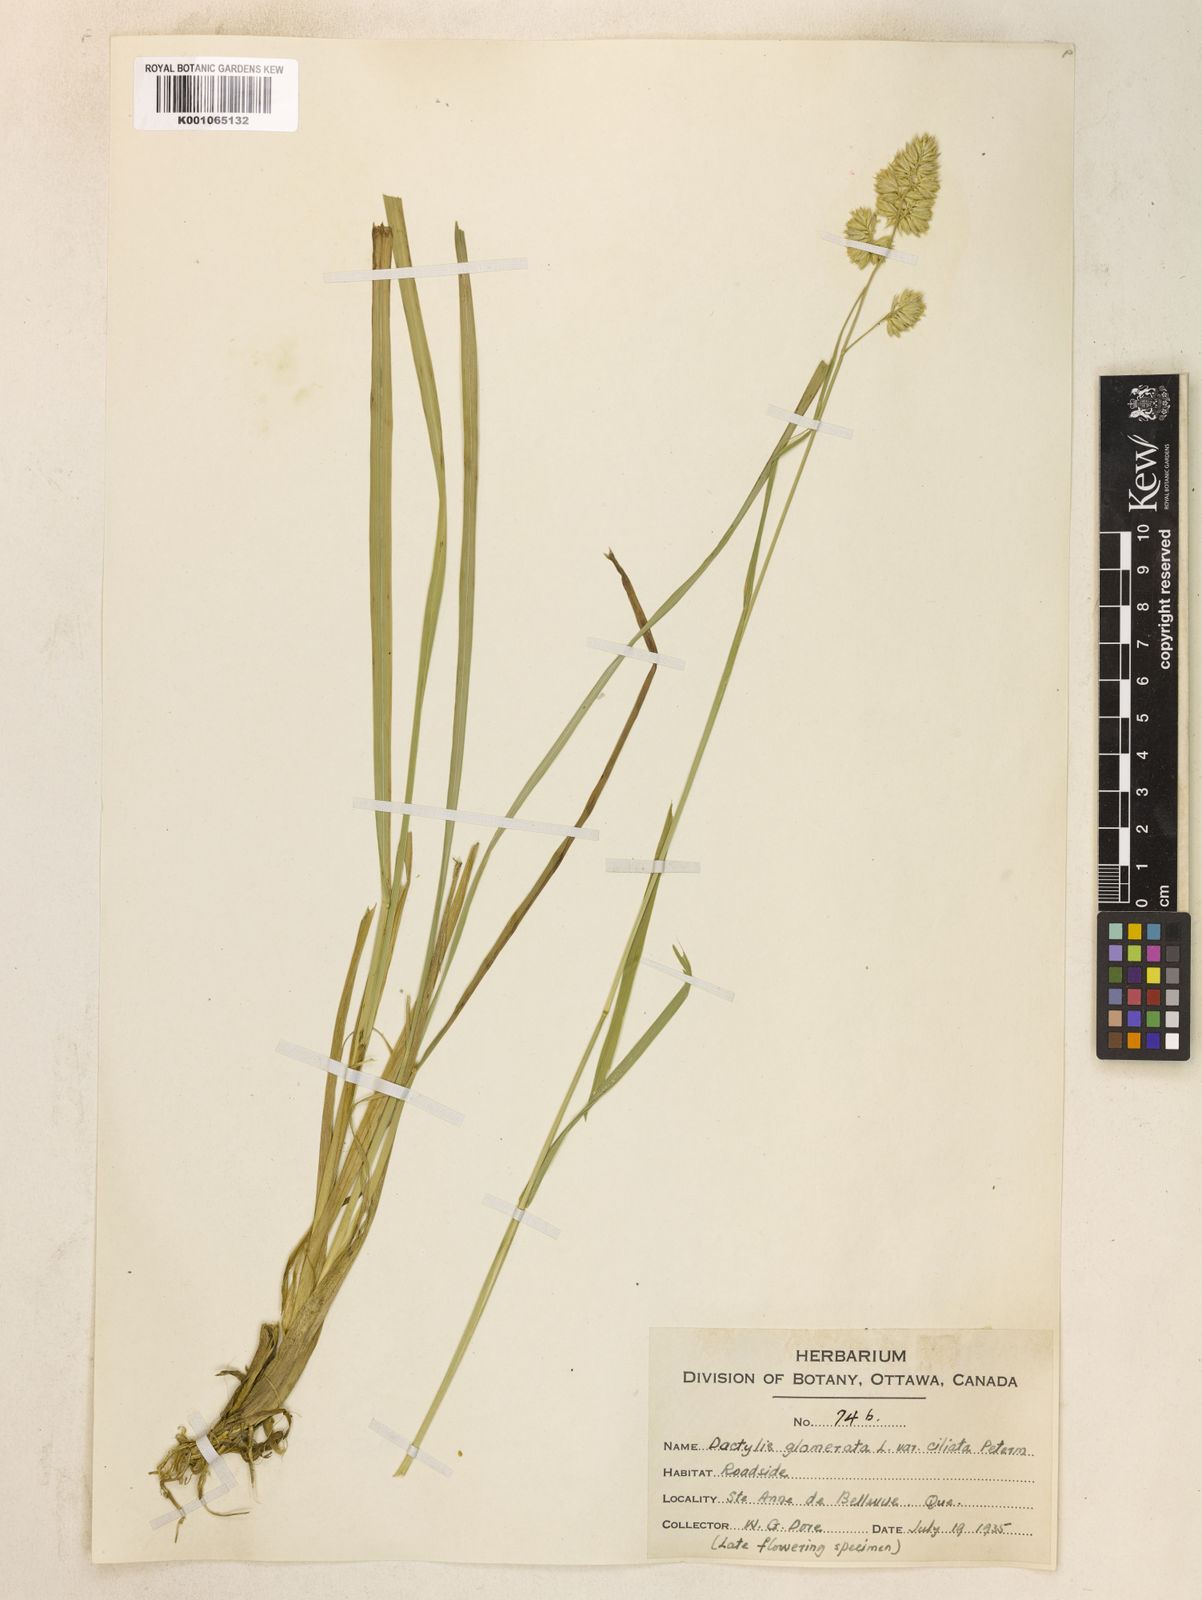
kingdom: Plantae
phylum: Tracheophyta
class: Liliopsida
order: Poales
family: Poaceae
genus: Dactylis
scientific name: Dactylis glomerata
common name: Orchardgrass
